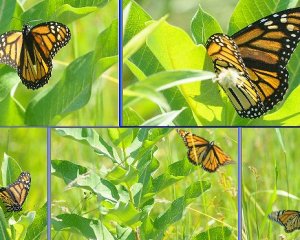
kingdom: Animalia
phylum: Arthropoda
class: Insecta
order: Lepidoptera
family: Nymphalidae
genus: Danaus
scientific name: Danaus plexippus
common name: Monarch
